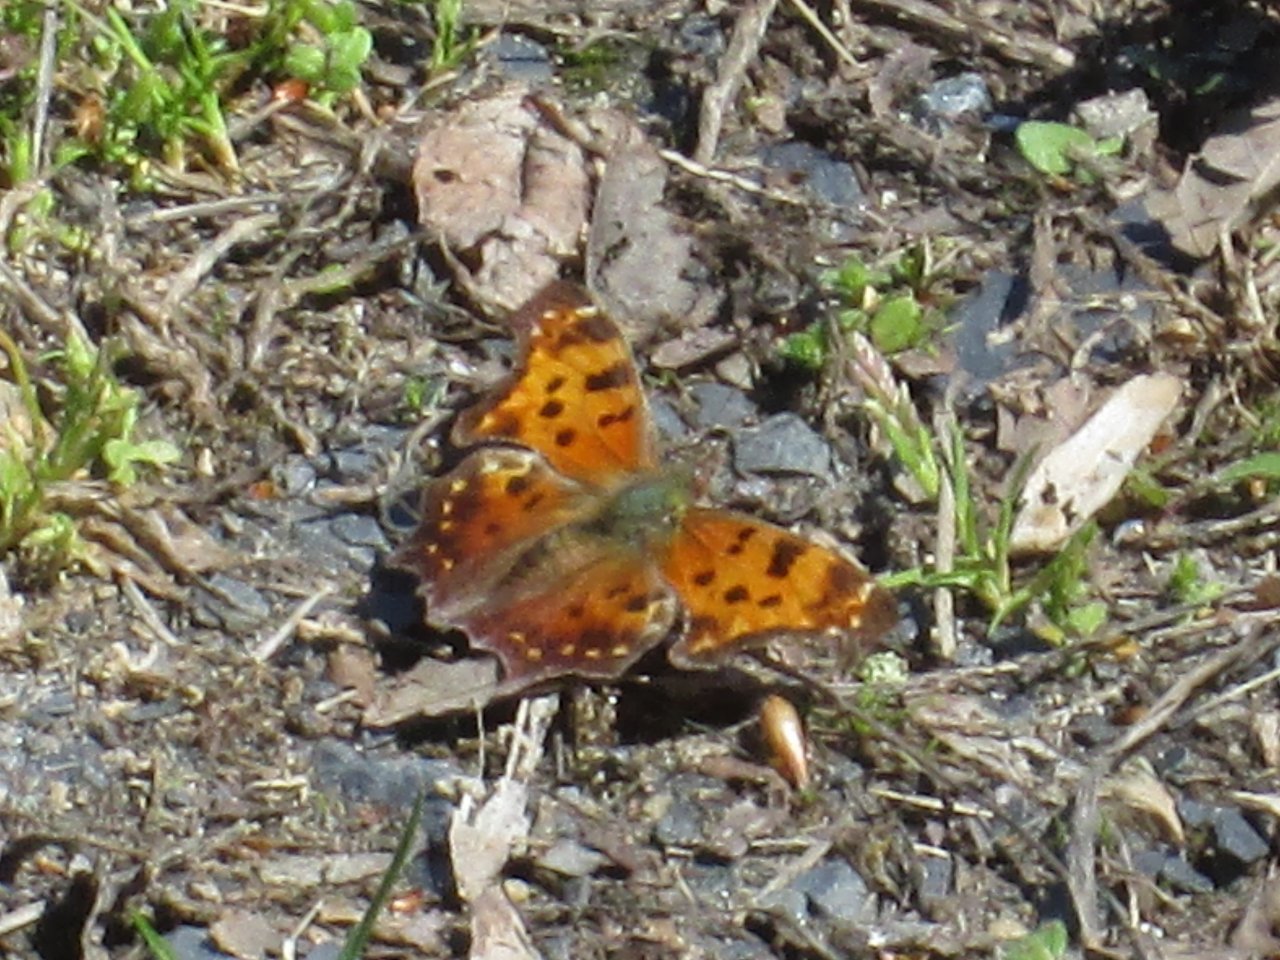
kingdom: Animalia
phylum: Arthropoda
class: Insecta
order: Lepidoptera
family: Nymphalidae
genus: Polygonia
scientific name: Polygonia comma
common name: Eastern Comma
